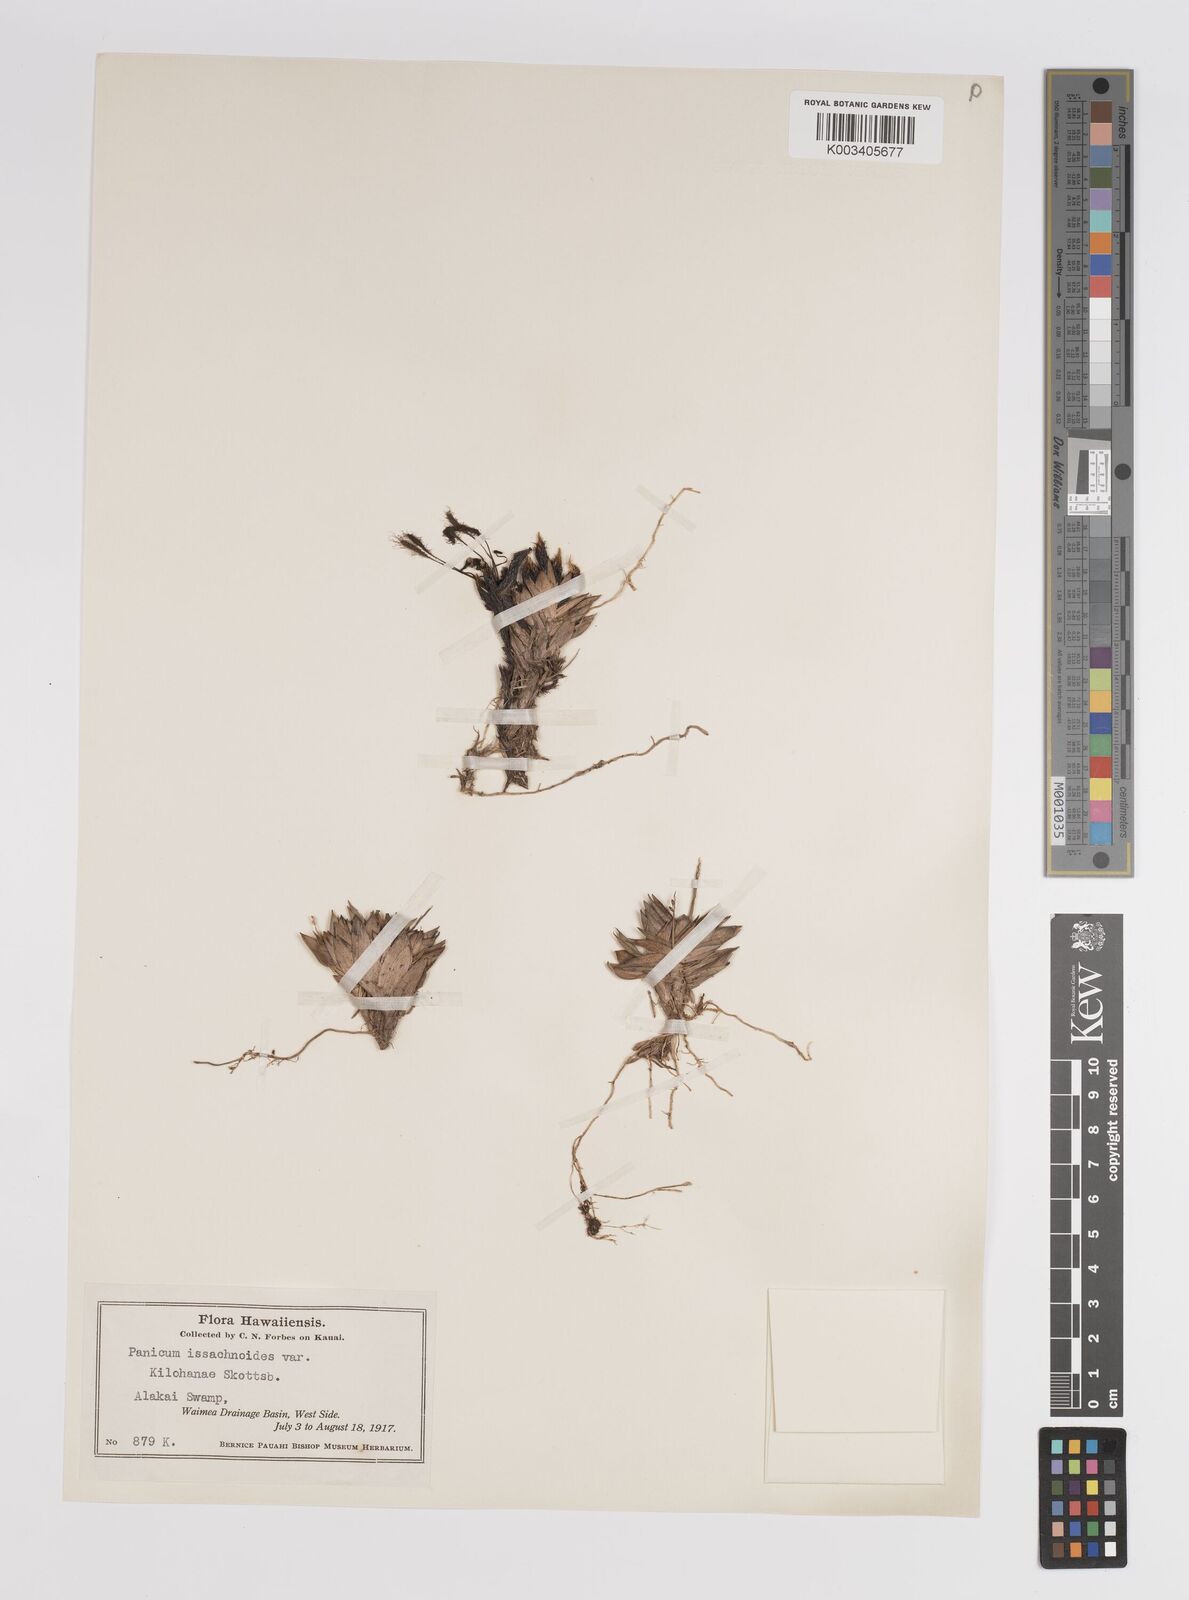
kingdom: Plantae
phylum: Tracheophyta
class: Liliopsida
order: Poales
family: Poaceae
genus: Panicum
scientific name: Panicum
